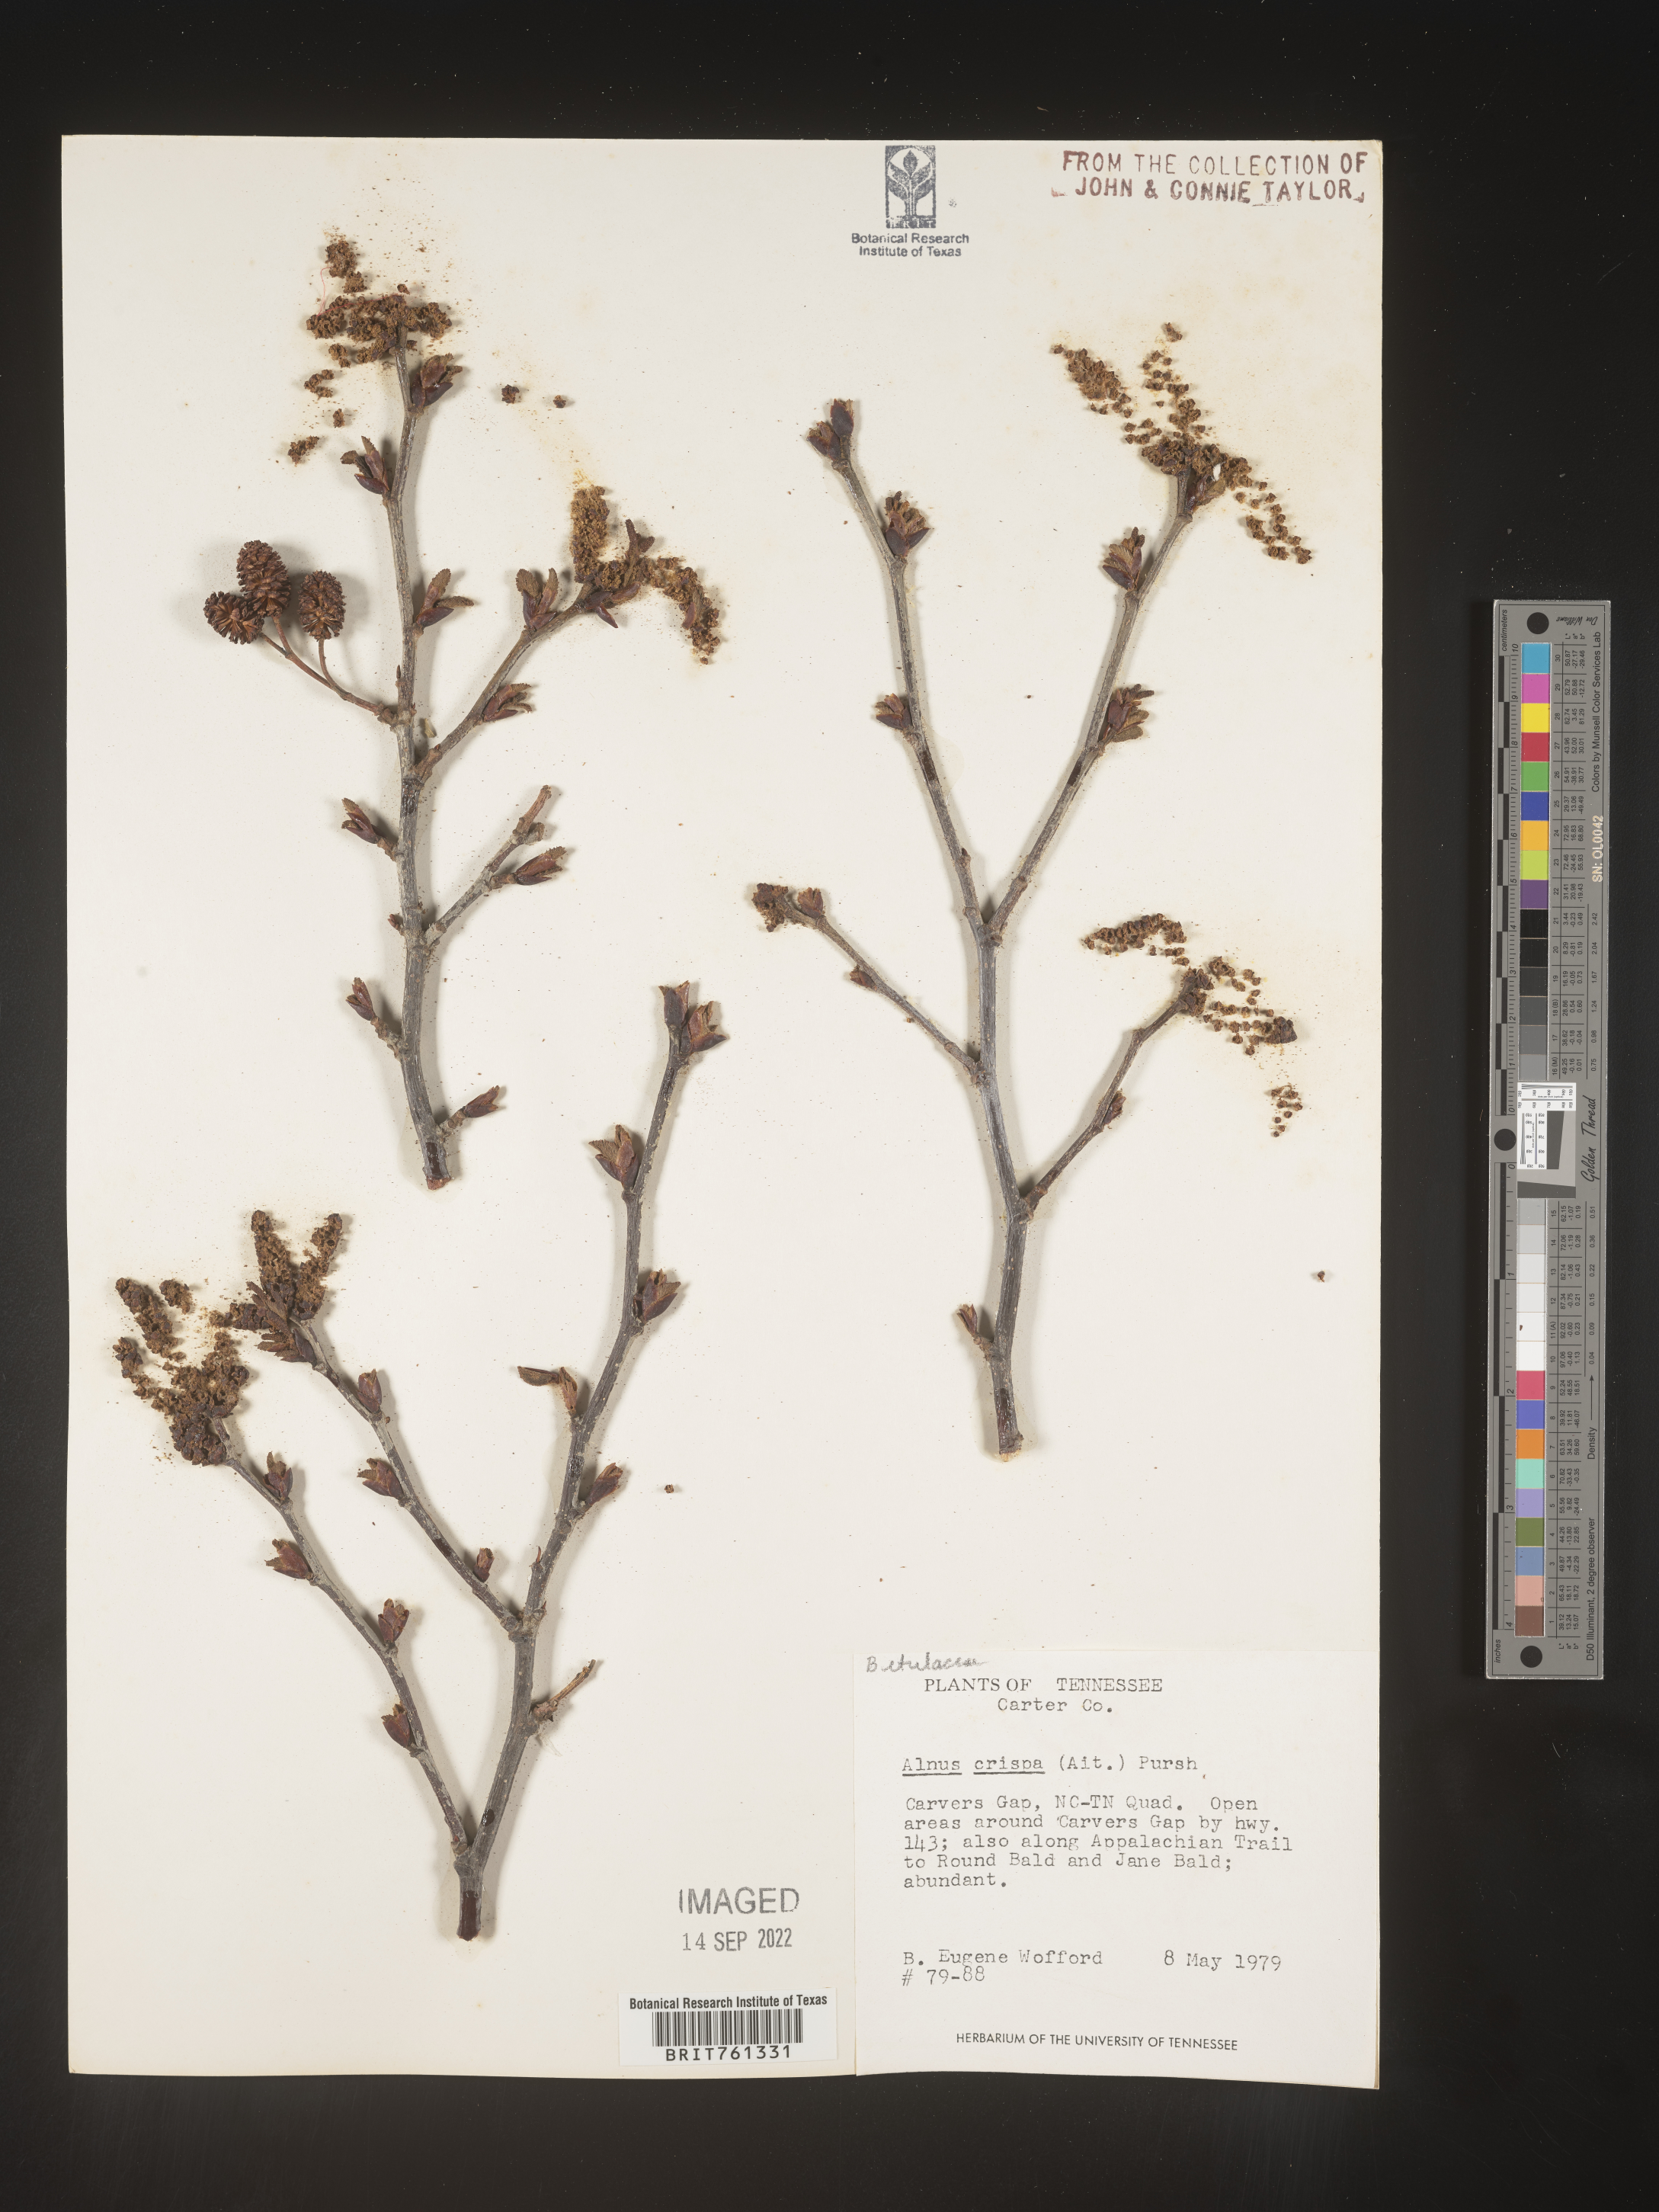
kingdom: Plantae
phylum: Tracheophyta
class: Magnoliopsida
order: Fagales
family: Betulaceae
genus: Alnus
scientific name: Alnus
